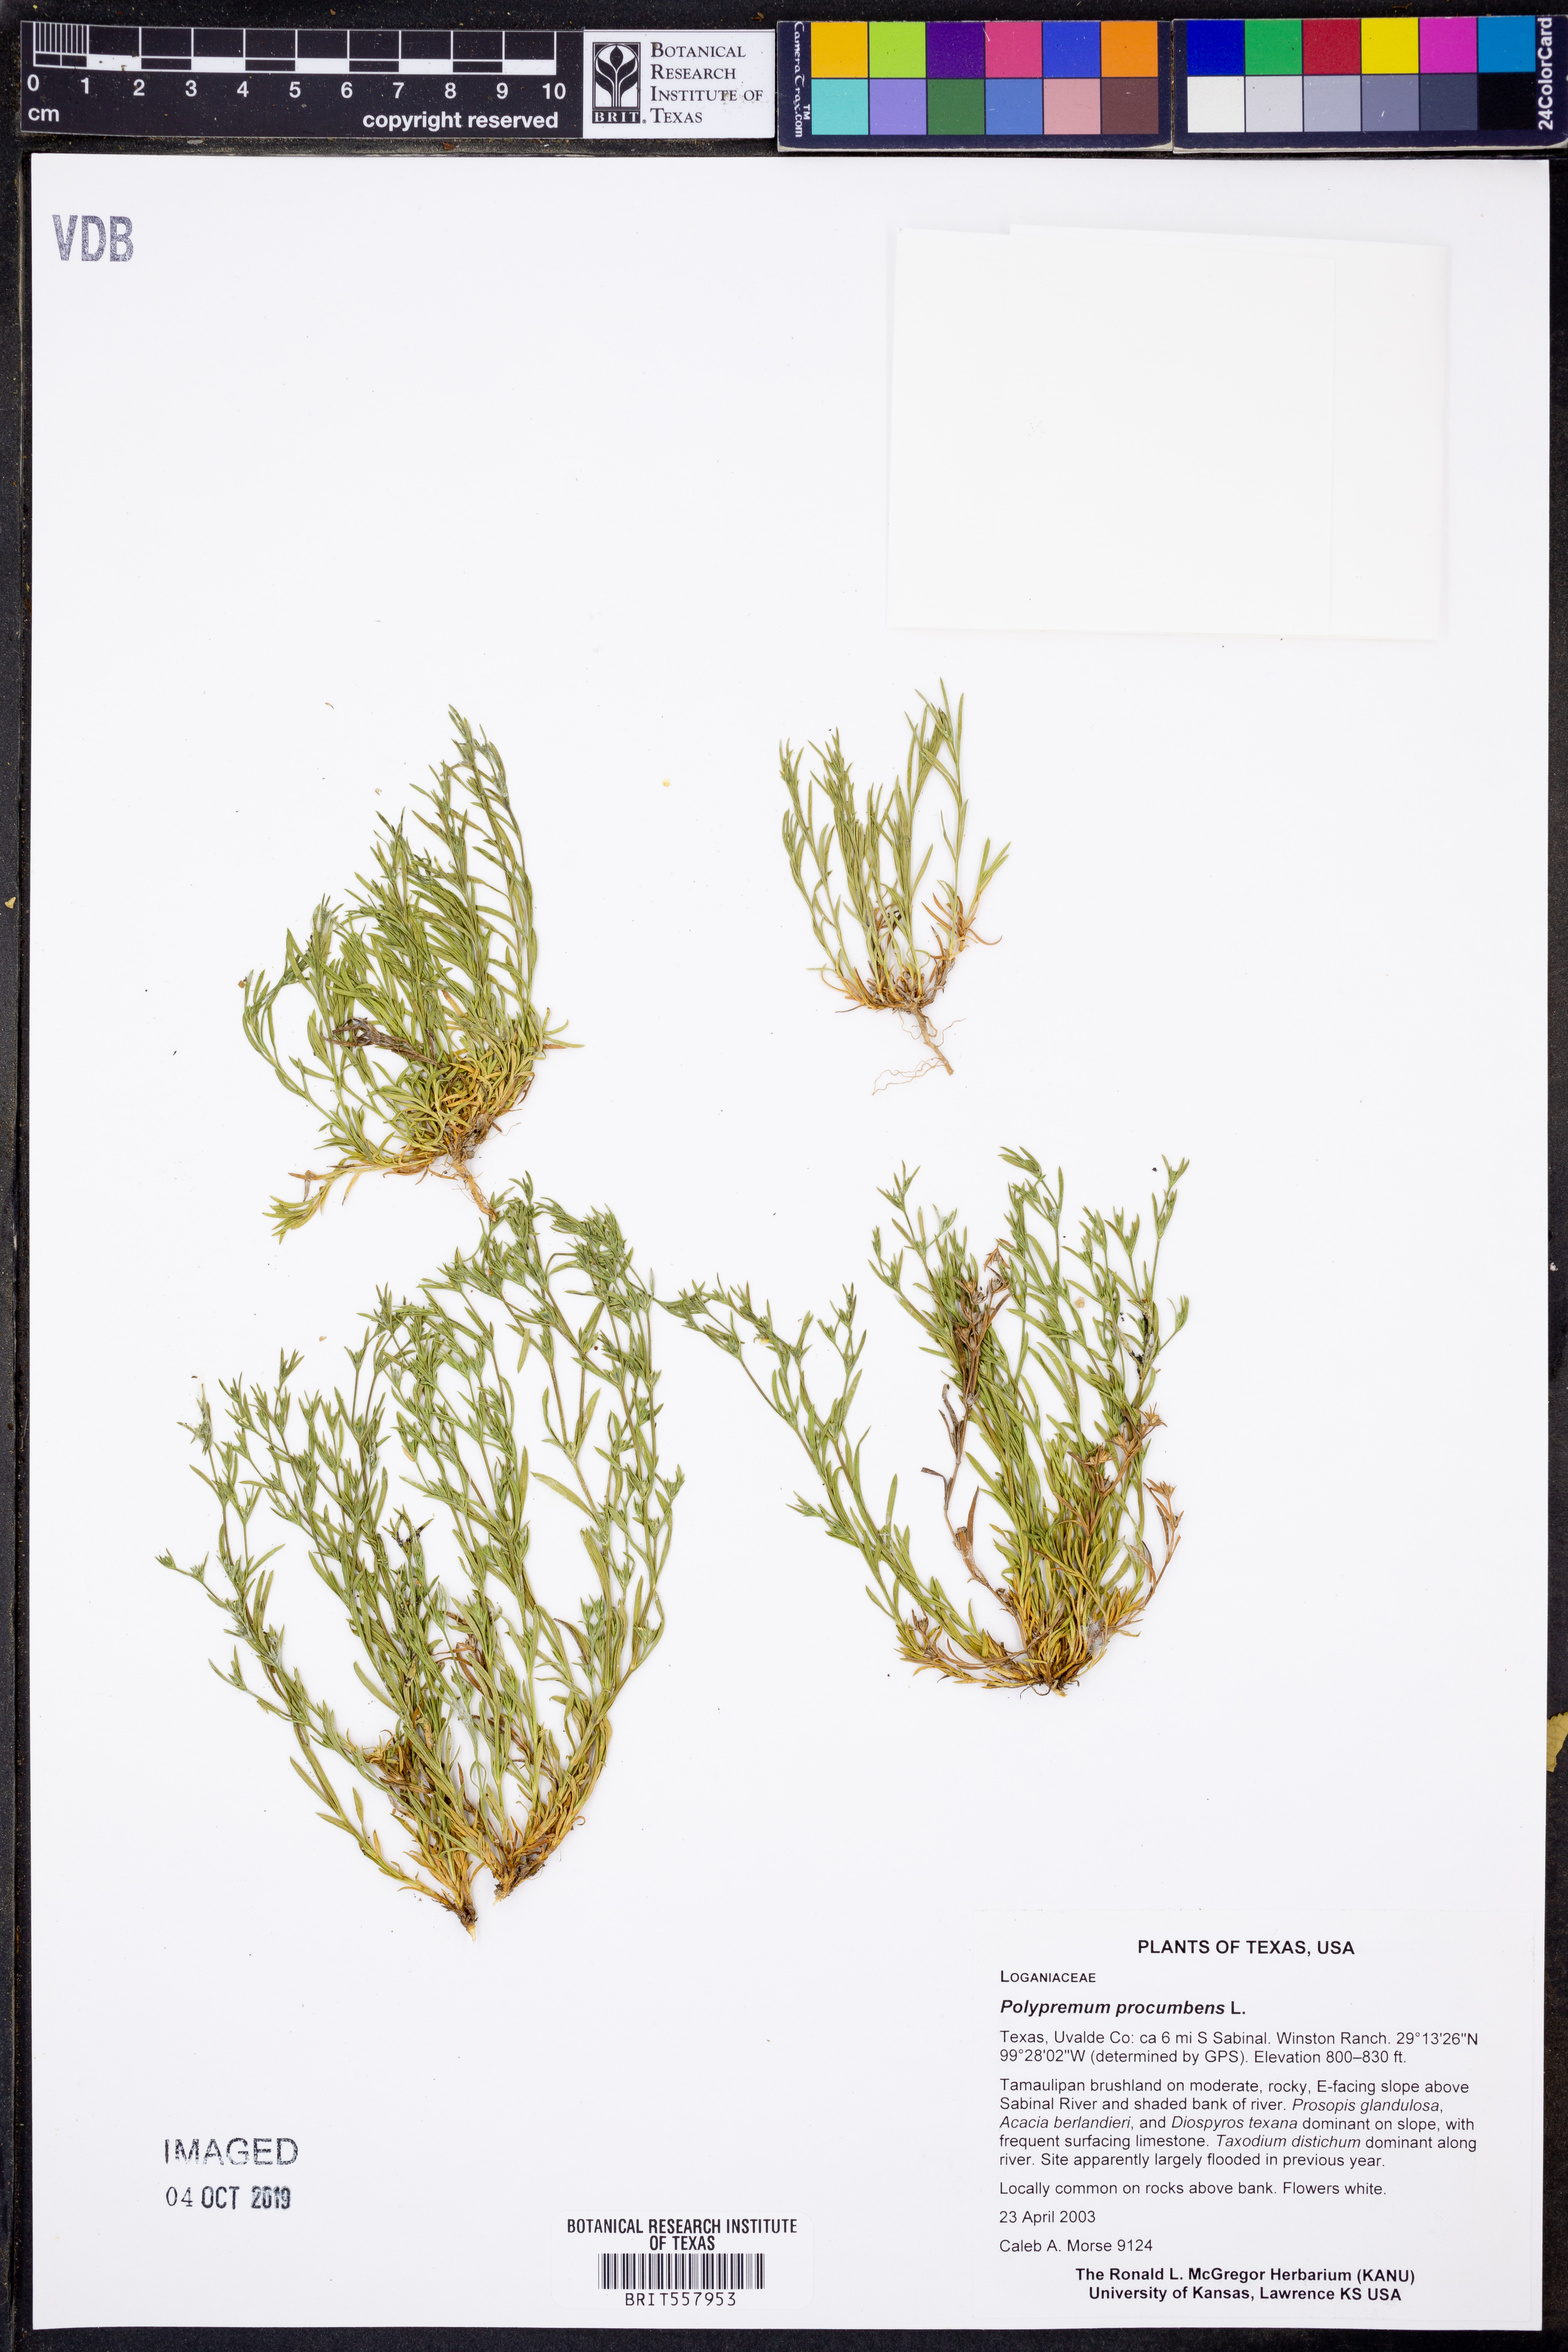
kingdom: Plantae
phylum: Tracheophyta
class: Magnoliopsida
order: Lamiales
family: Tetrachondraceae
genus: Polypremum
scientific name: Polypremum procumbens
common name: Juniper-leaf
